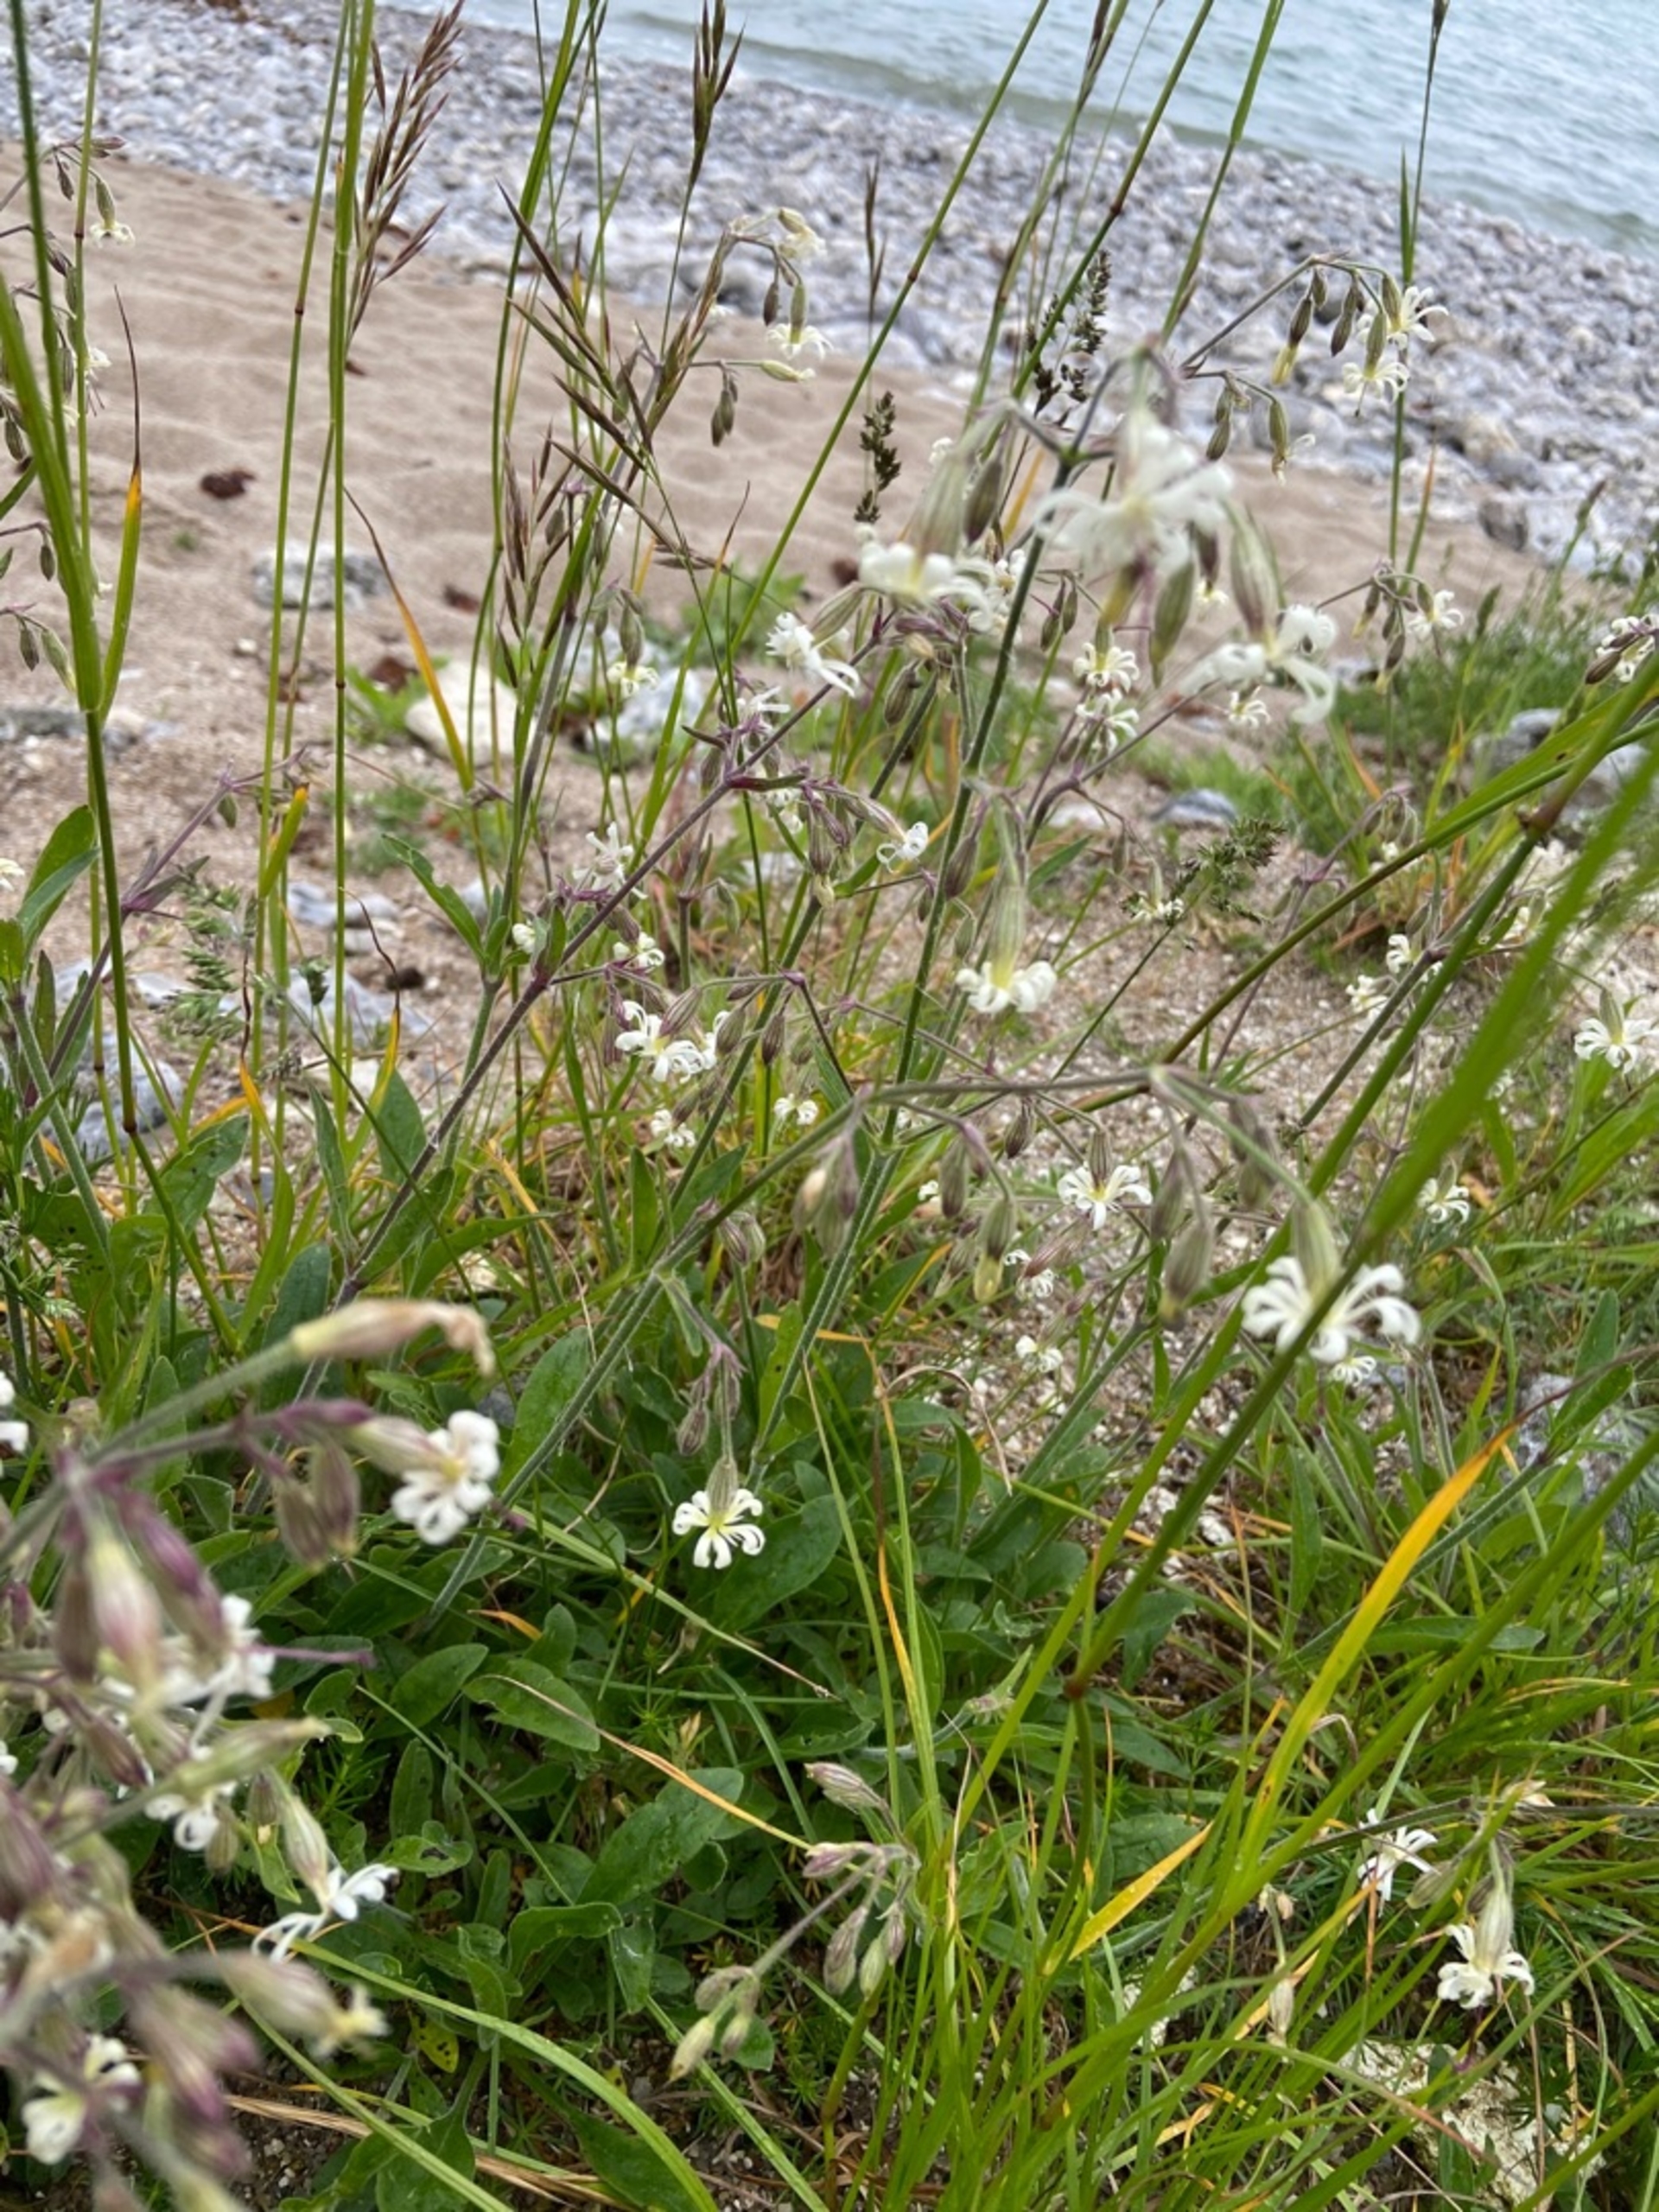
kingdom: Plantae
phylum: Tracheophyta
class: Magnoliopsida
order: Caryophyllales
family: Caryophyllaceae
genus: Silene
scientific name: Silene nutans
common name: Nikkende limurt
